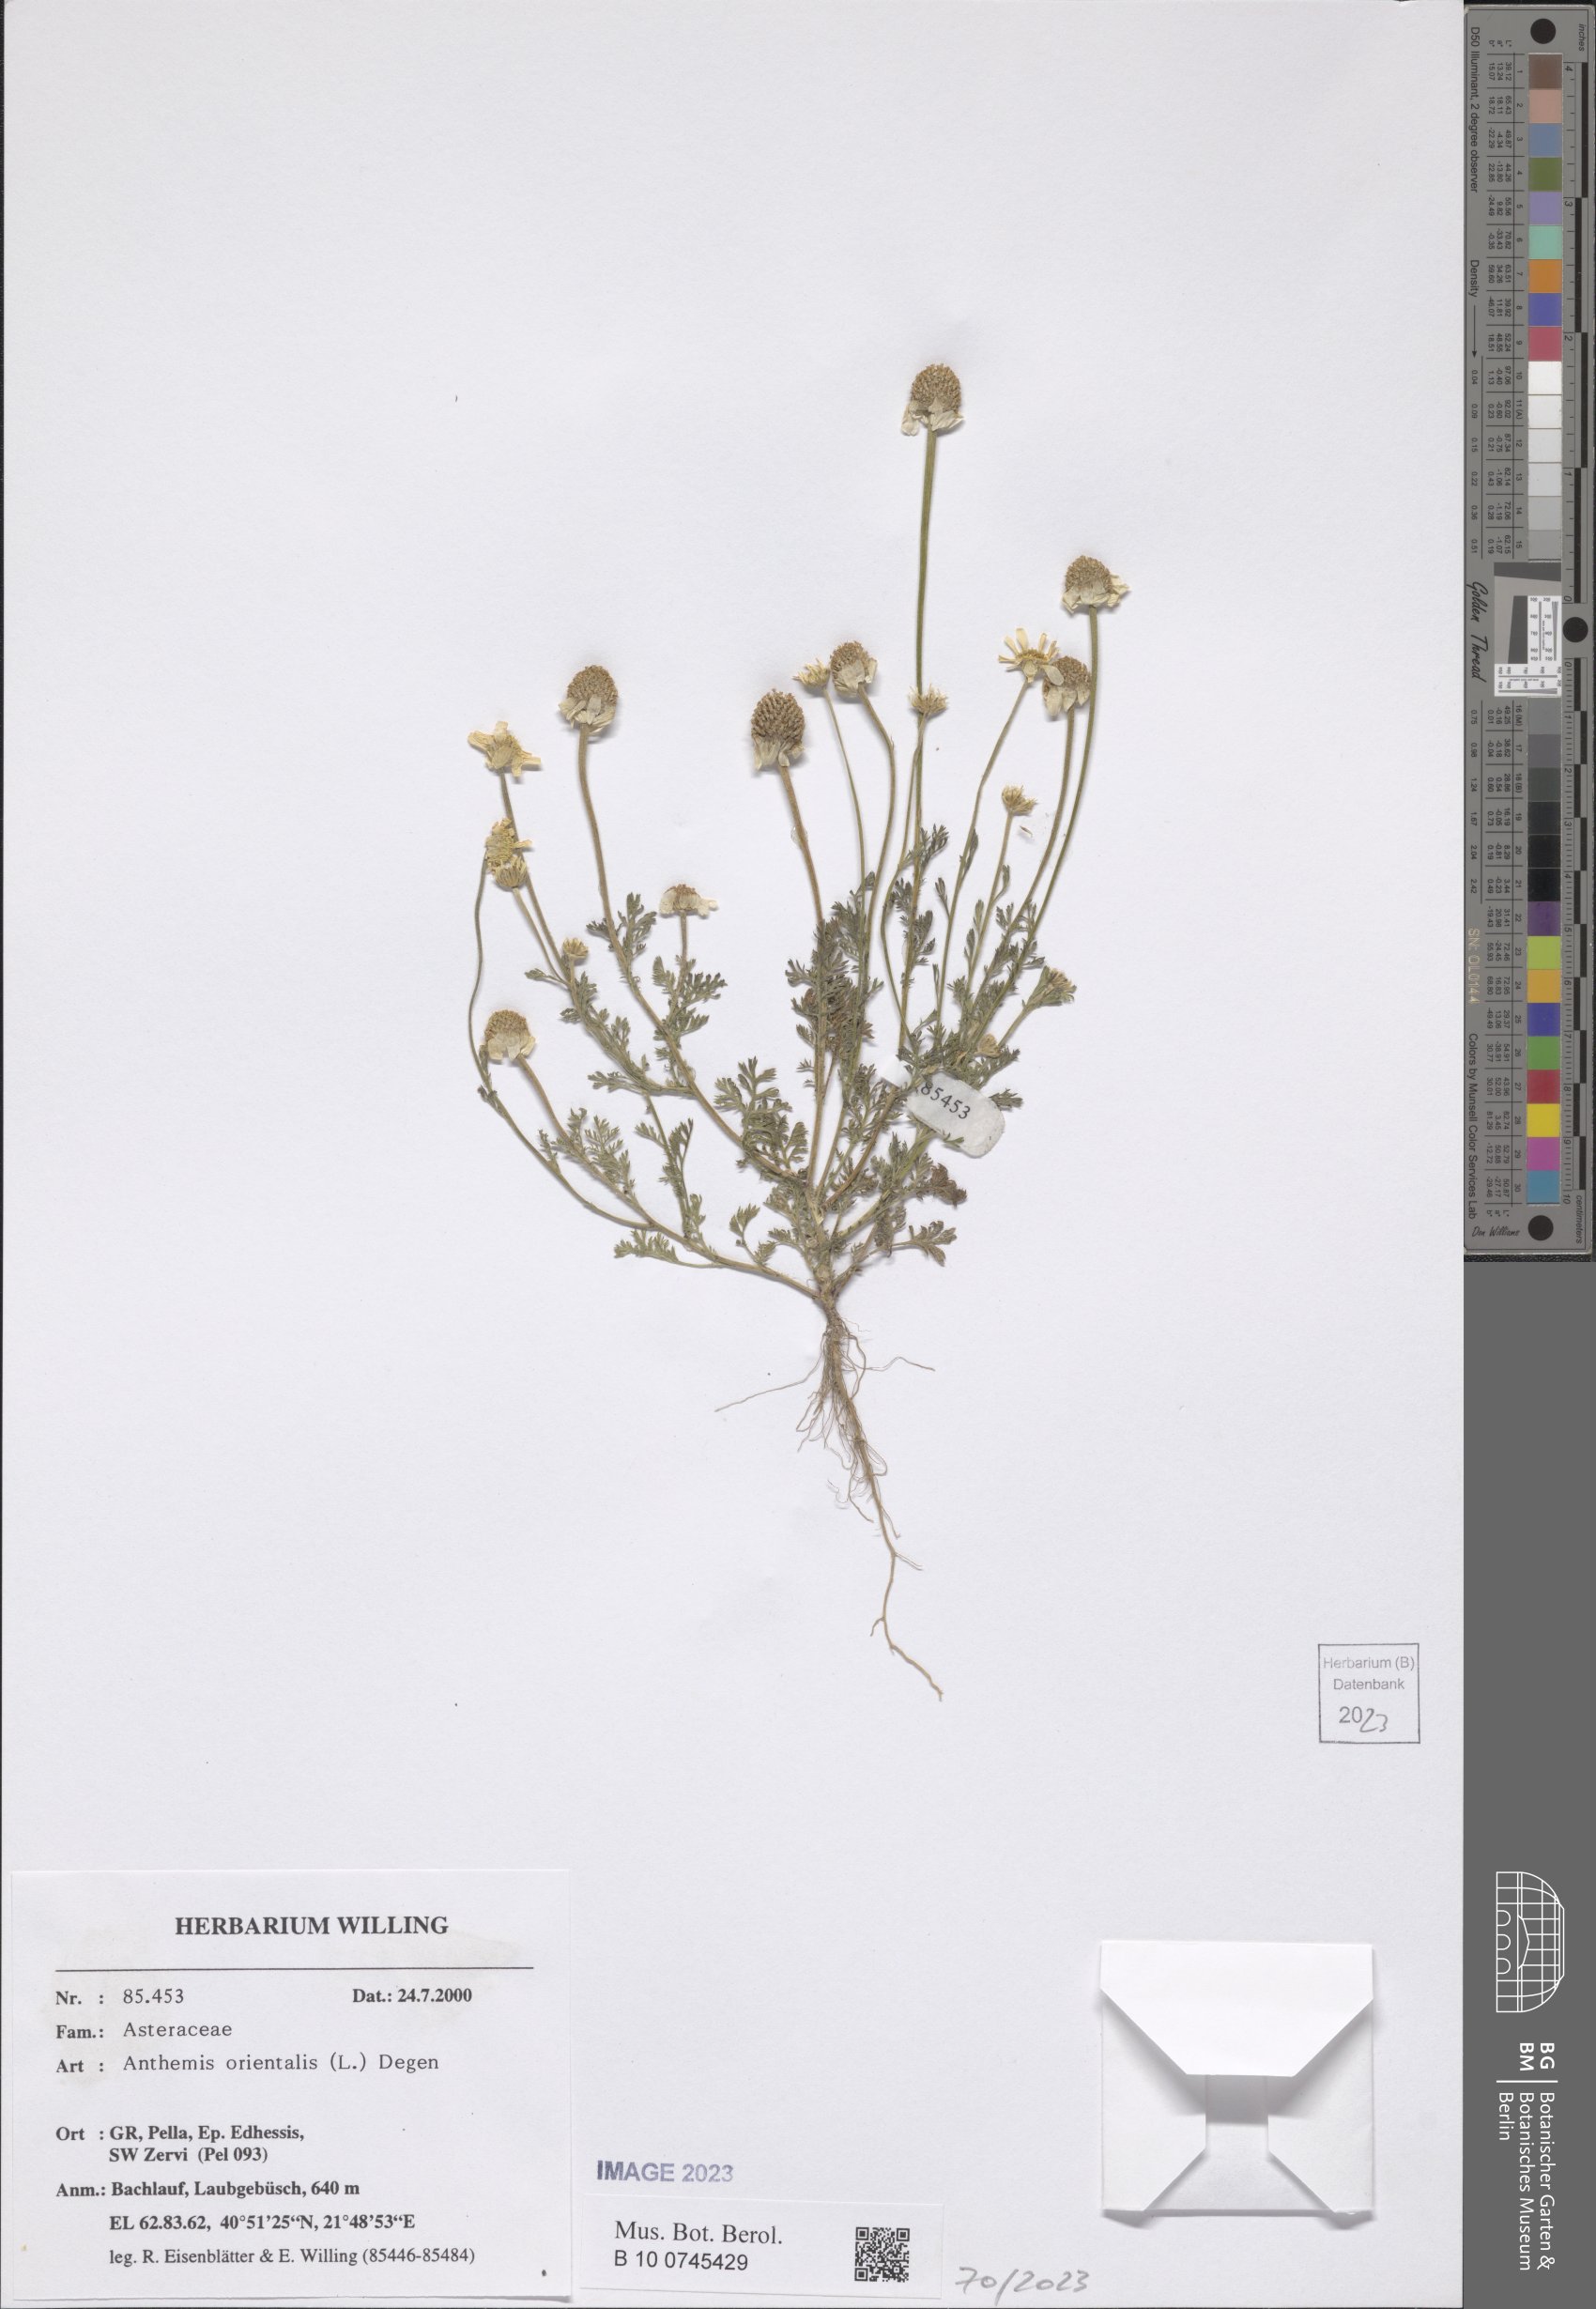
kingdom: Plantae
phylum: Tracheophyta
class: Magnoliopsida
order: Asterales
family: Asteraceae
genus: Anthemis
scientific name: Anthemis orientalis
